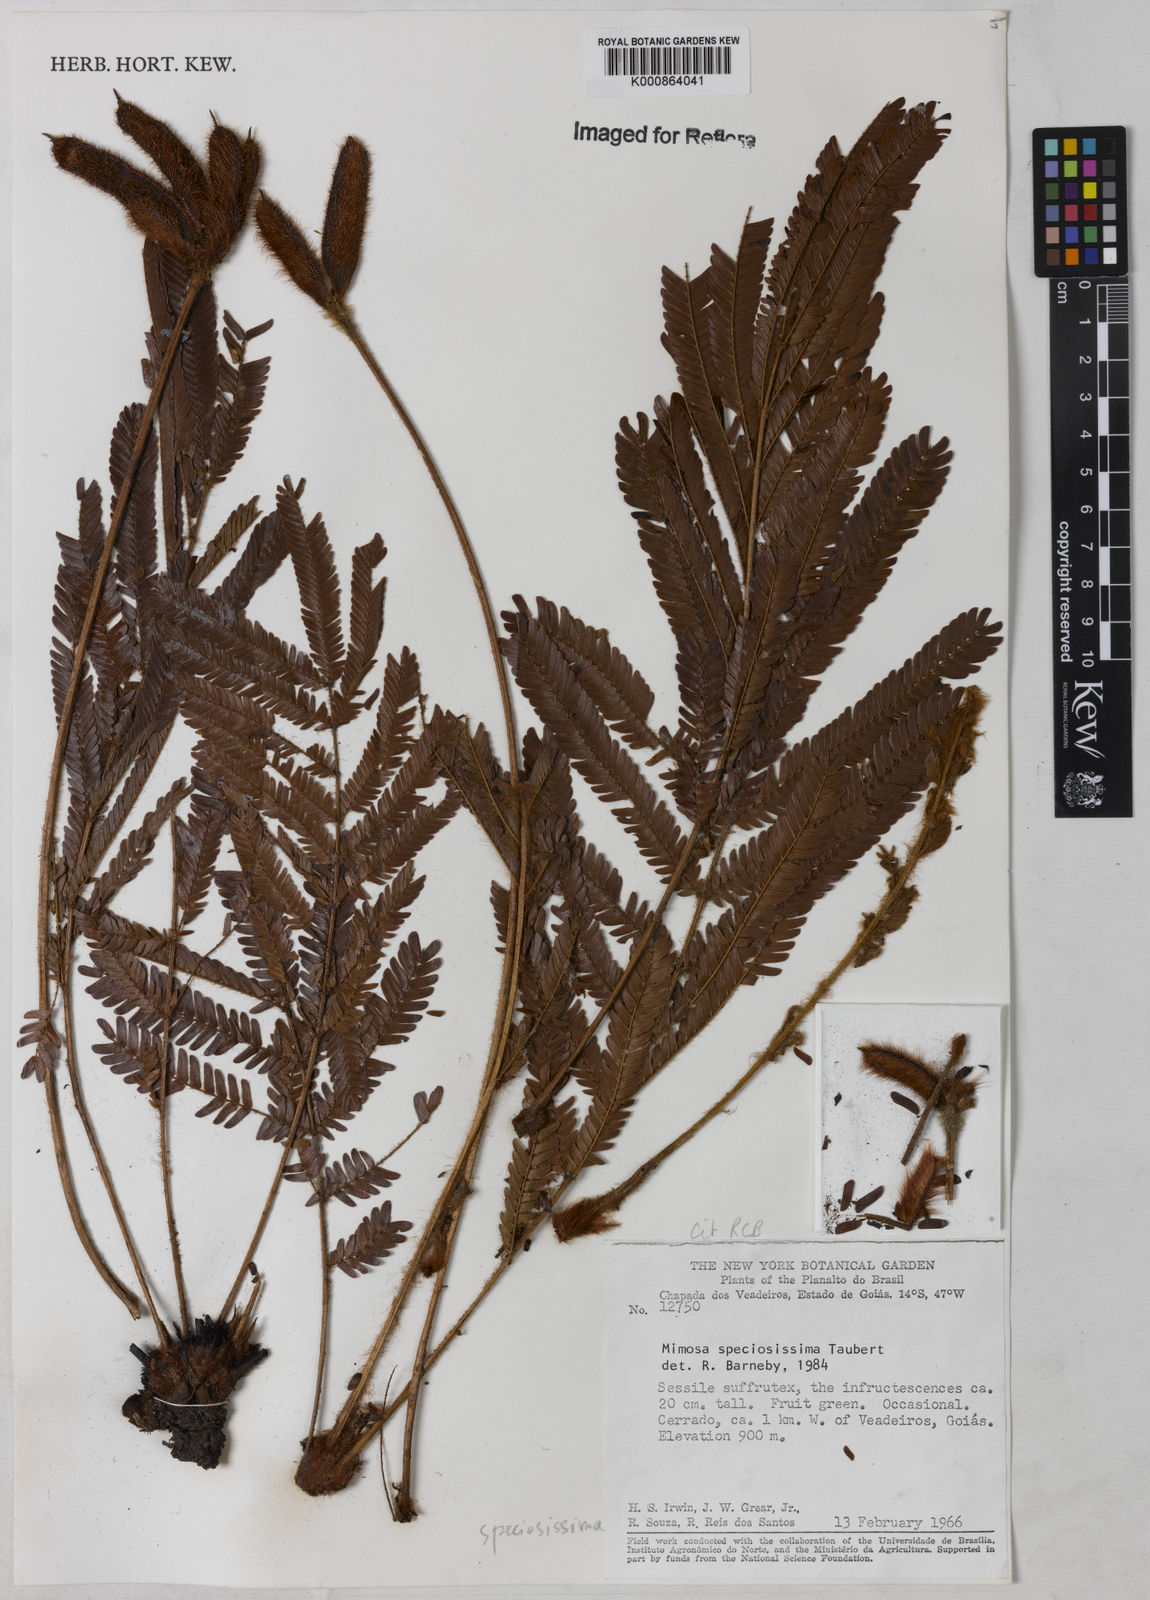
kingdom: Plantae
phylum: Tracheophyta
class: Magnoliopsida
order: Fabales
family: Fabaceae
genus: Mimosa
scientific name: Mimosa speciosissima
